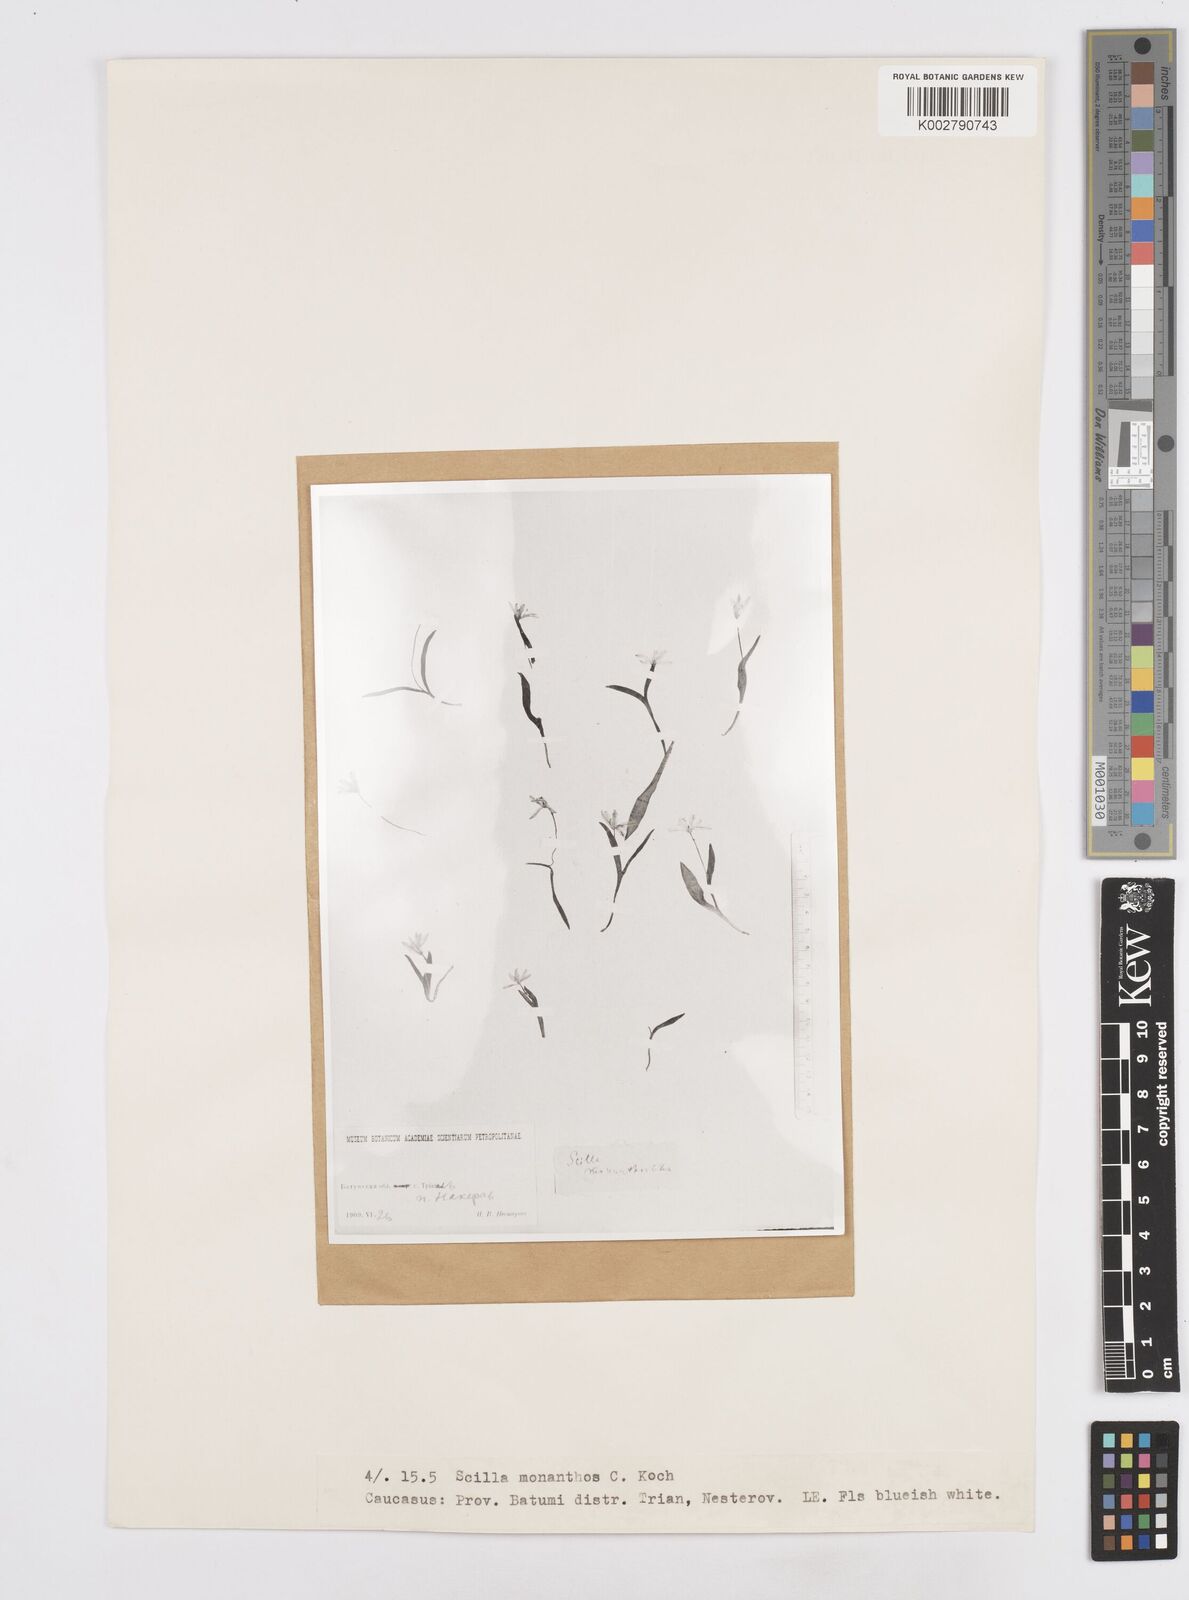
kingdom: Plantae
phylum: Tracheophyta
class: Liliopsida
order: Asparagales
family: Asparagaceae
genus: Scilla
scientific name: Scilla monanthos
